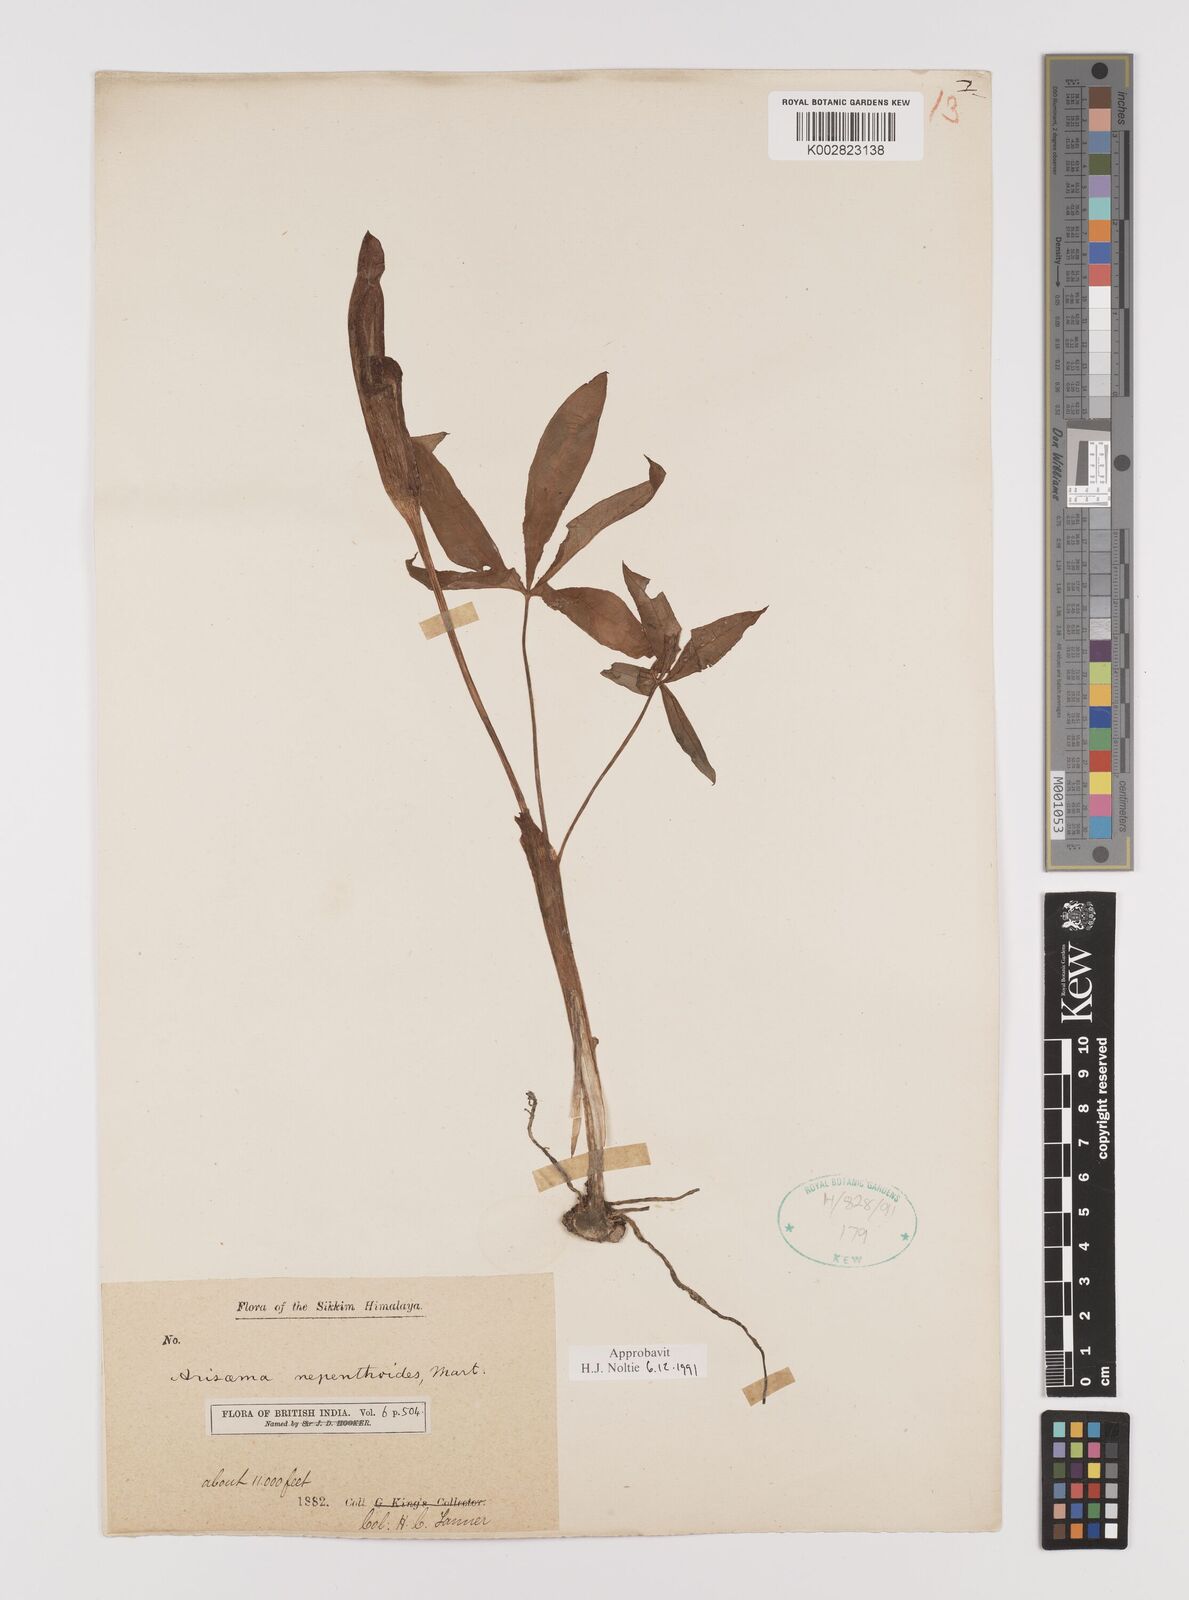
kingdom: Plantae
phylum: Tracheophyta
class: Liliopsida
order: Alismatales
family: Araceae
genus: Arisaema
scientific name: Arisaema nepenthoides
